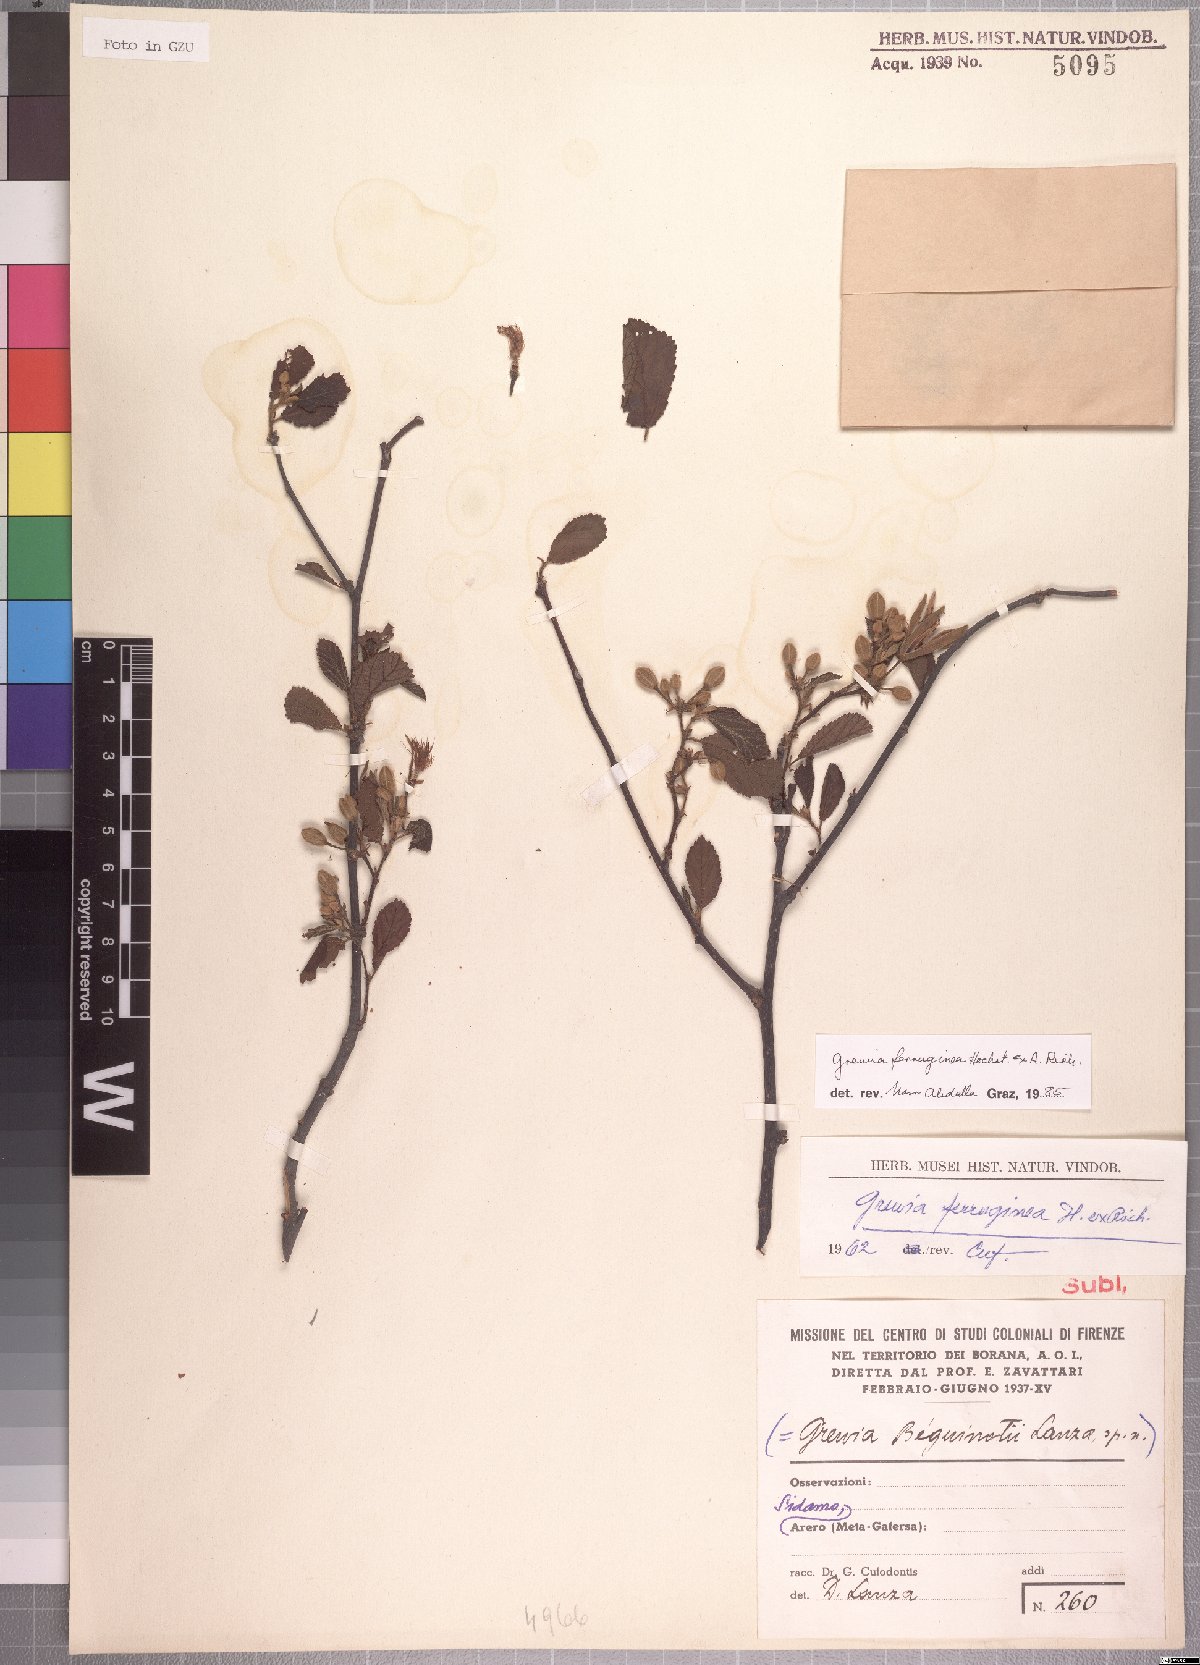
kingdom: Plantae
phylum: Tracheophyta
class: Magnoliopsida
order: Malvales
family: Malvaceae
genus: Grewia
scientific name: Grewia ferruginea
